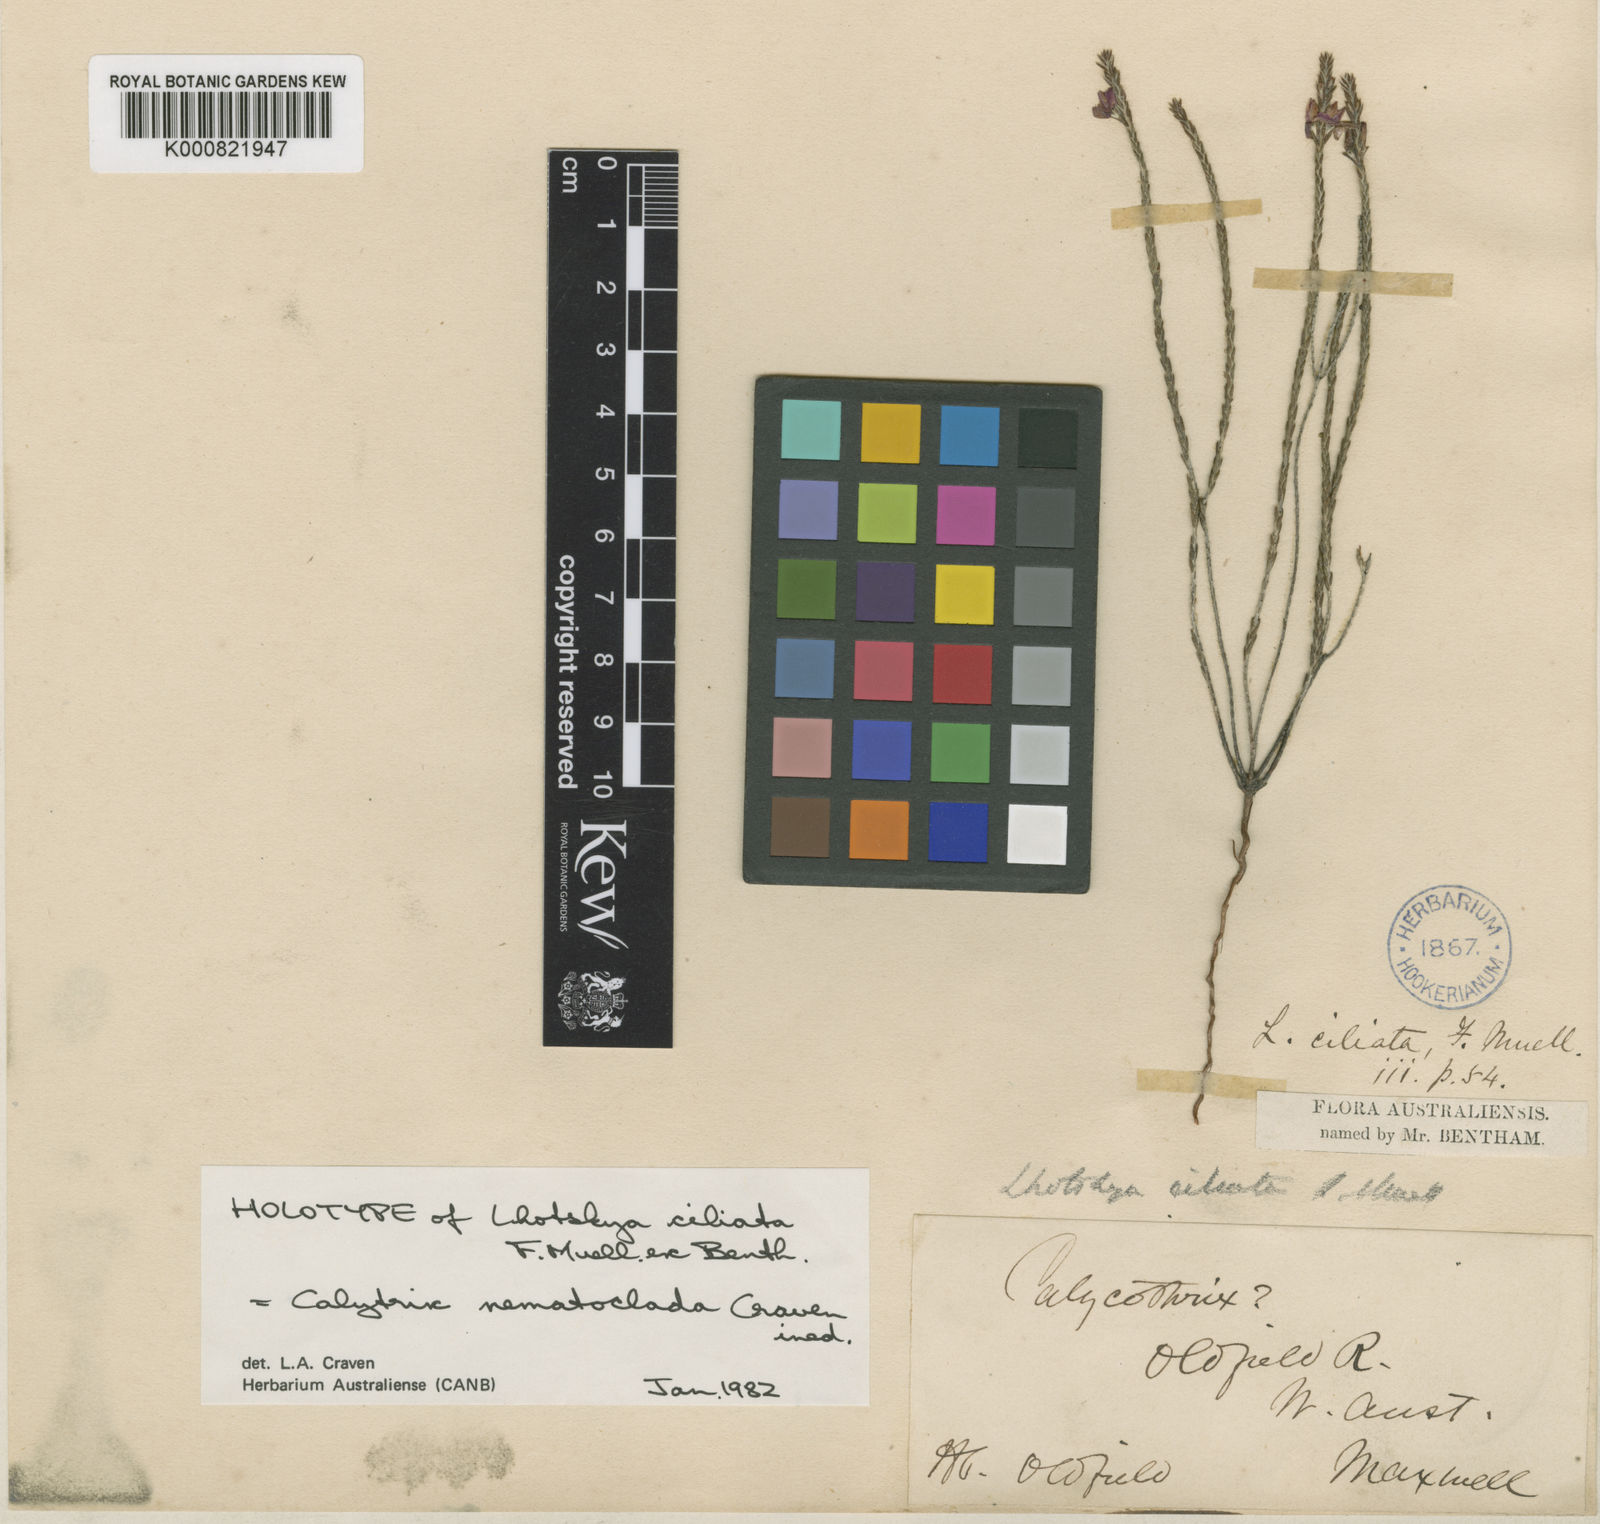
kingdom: Plantae
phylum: Tracheophyta
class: Magnoliopsida
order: Myrtales
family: Myrtaceae
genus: Calytrix
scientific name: Calytrix nematoclada
